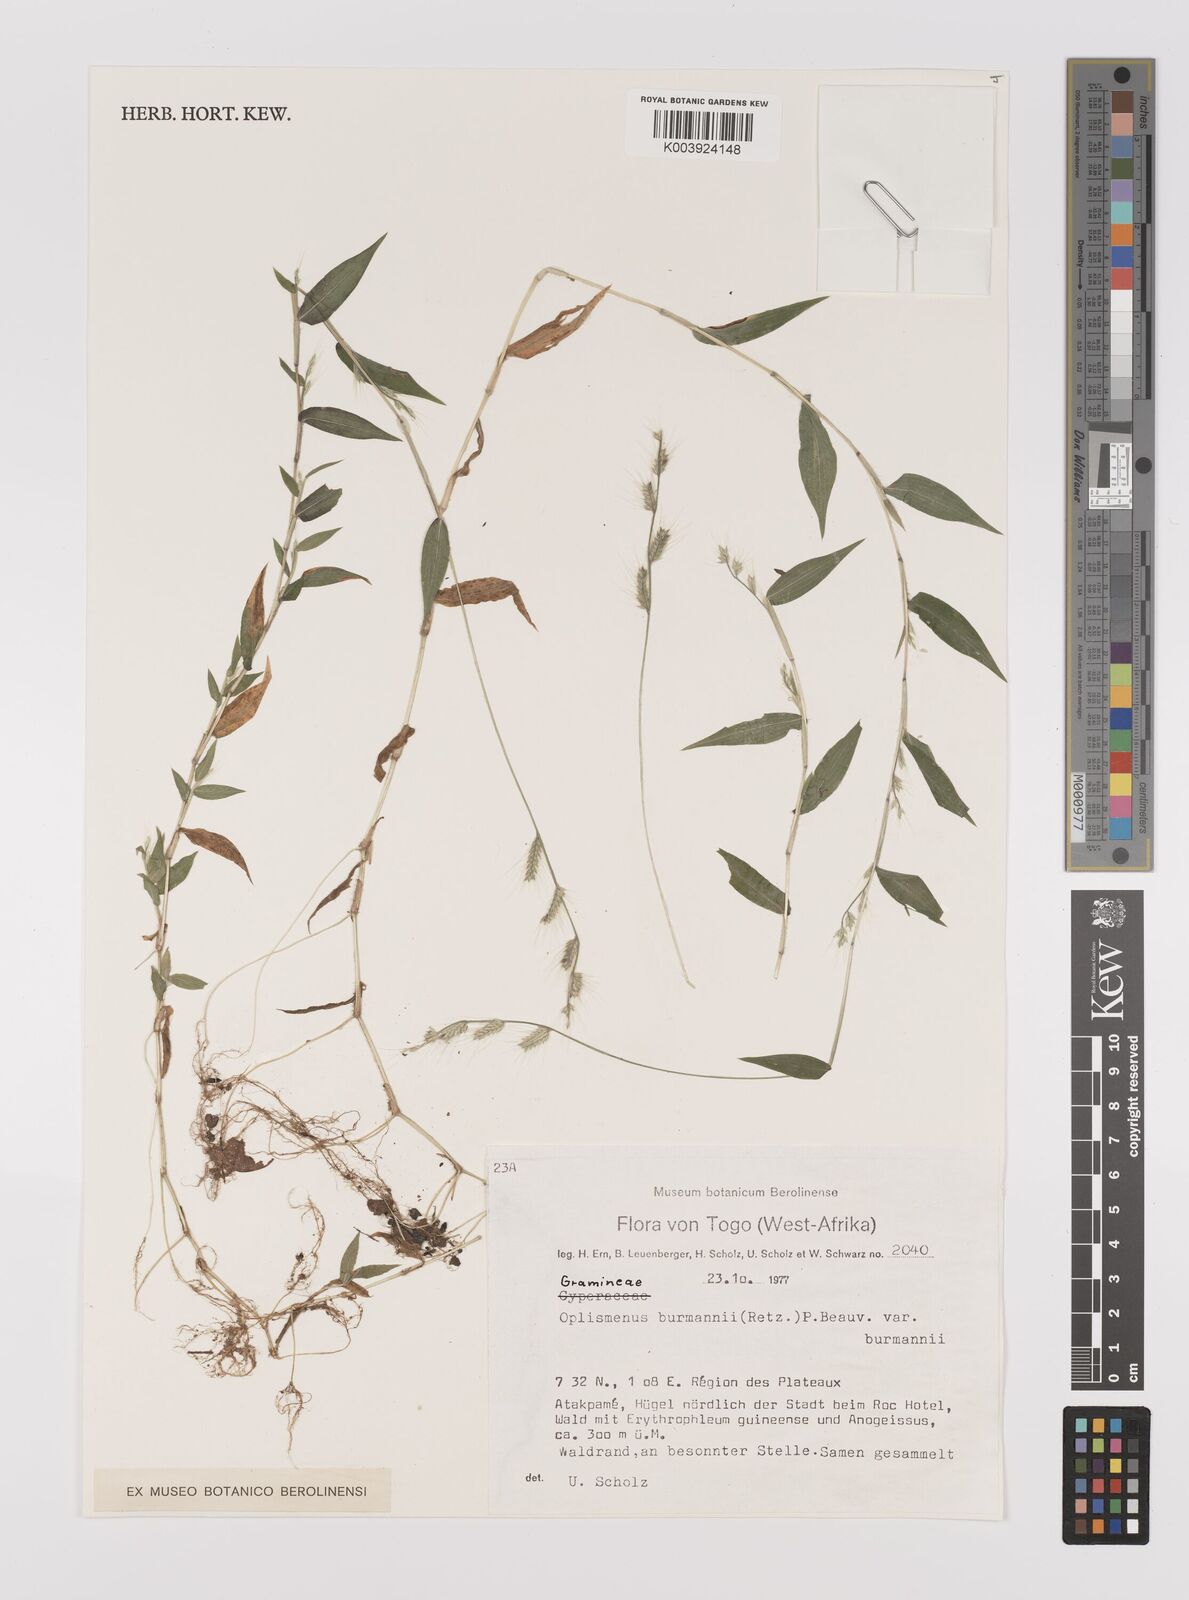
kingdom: Plantae
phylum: Tracheophyta
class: Liliopsida
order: Poales
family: Poaceae
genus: Oplismenus
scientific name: Oplismenus burmanni
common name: Burmann's basketgrass
